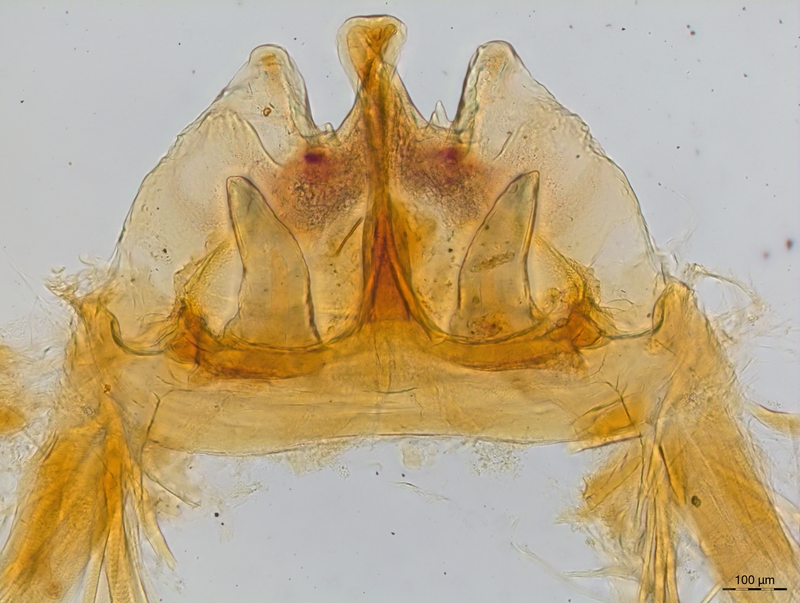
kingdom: Animalia
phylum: Arthropoda
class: Diplopoda
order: Chordeumatida
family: Craspedosomatidae
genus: Craspedosoma
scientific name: Craspedosoma rawlinsii
